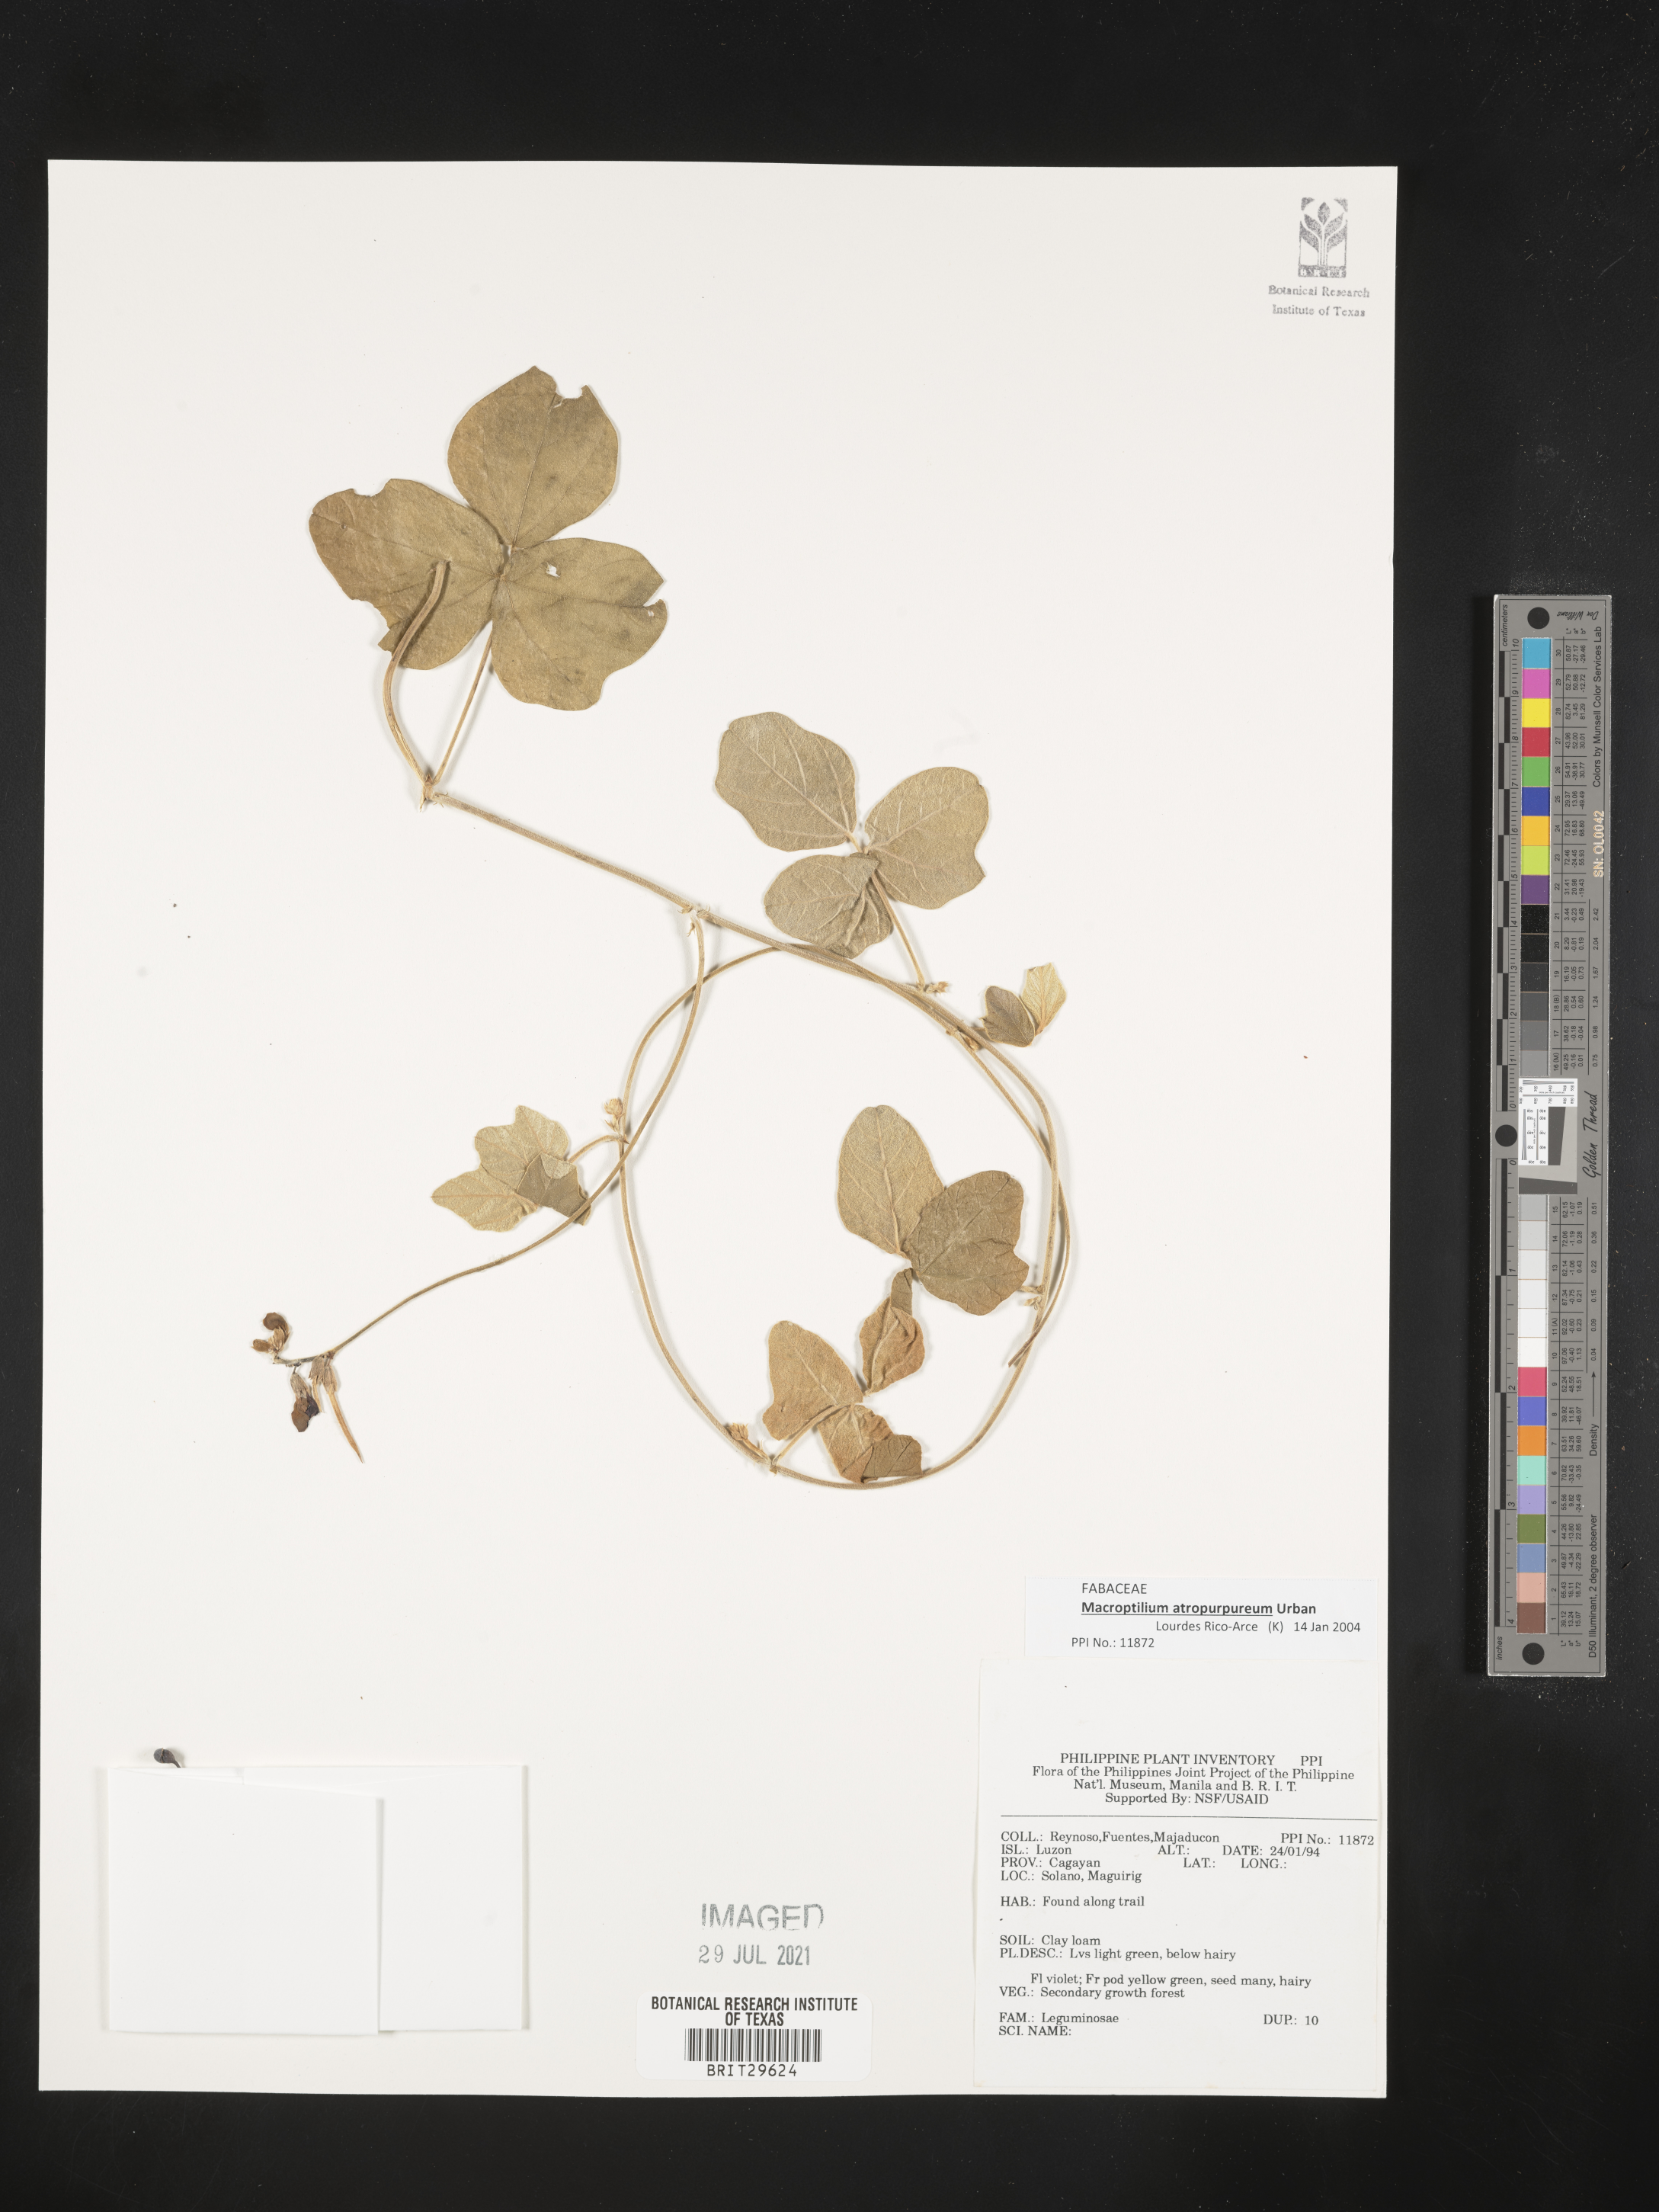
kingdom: Plantae
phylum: Tracheophyta
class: Magnoliopsida
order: Fabales
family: Fabaceae
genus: Macroptilium
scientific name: Macroptilium atropurpureum
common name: Purple bushbean
